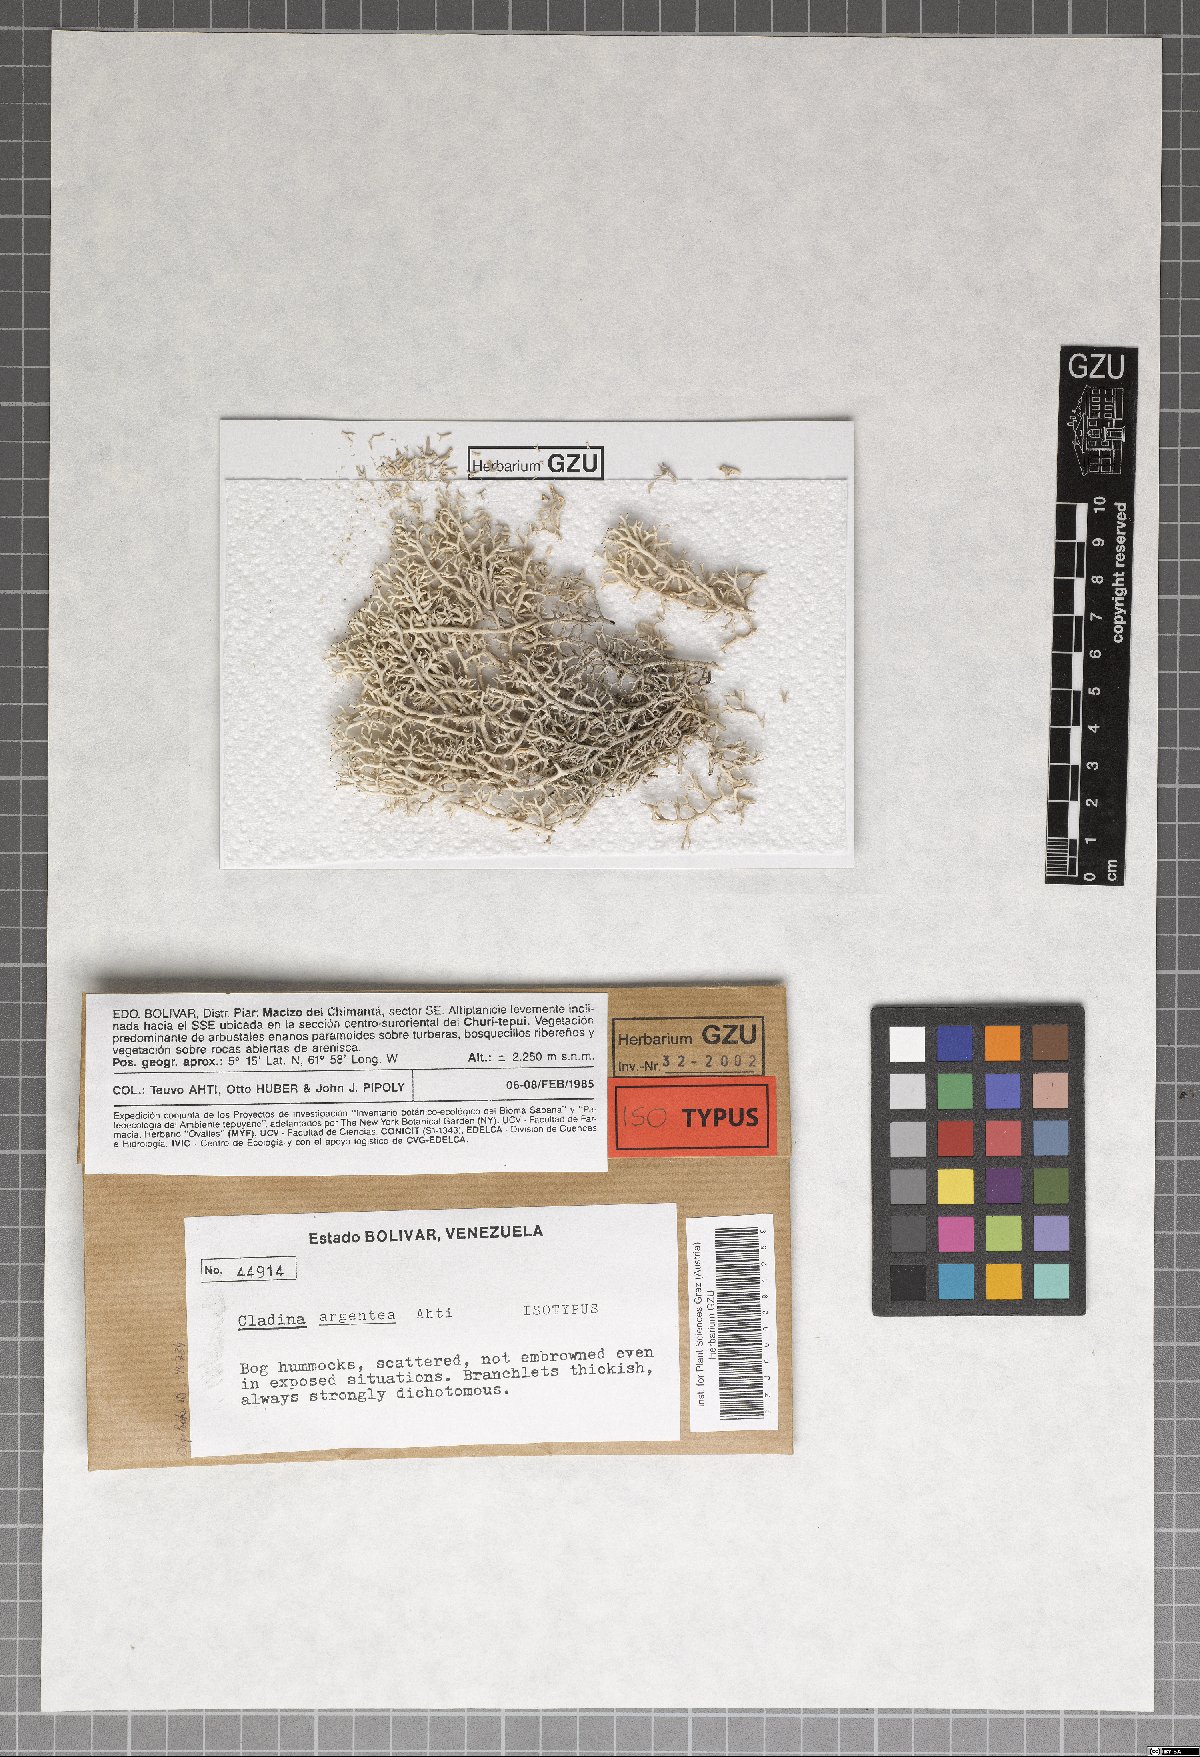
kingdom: Fungi
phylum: Ascomycota
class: Lecanoromycetes
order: Lecanorales
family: Cladoniaceae
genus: Cladonia
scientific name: Cladonia argentea
